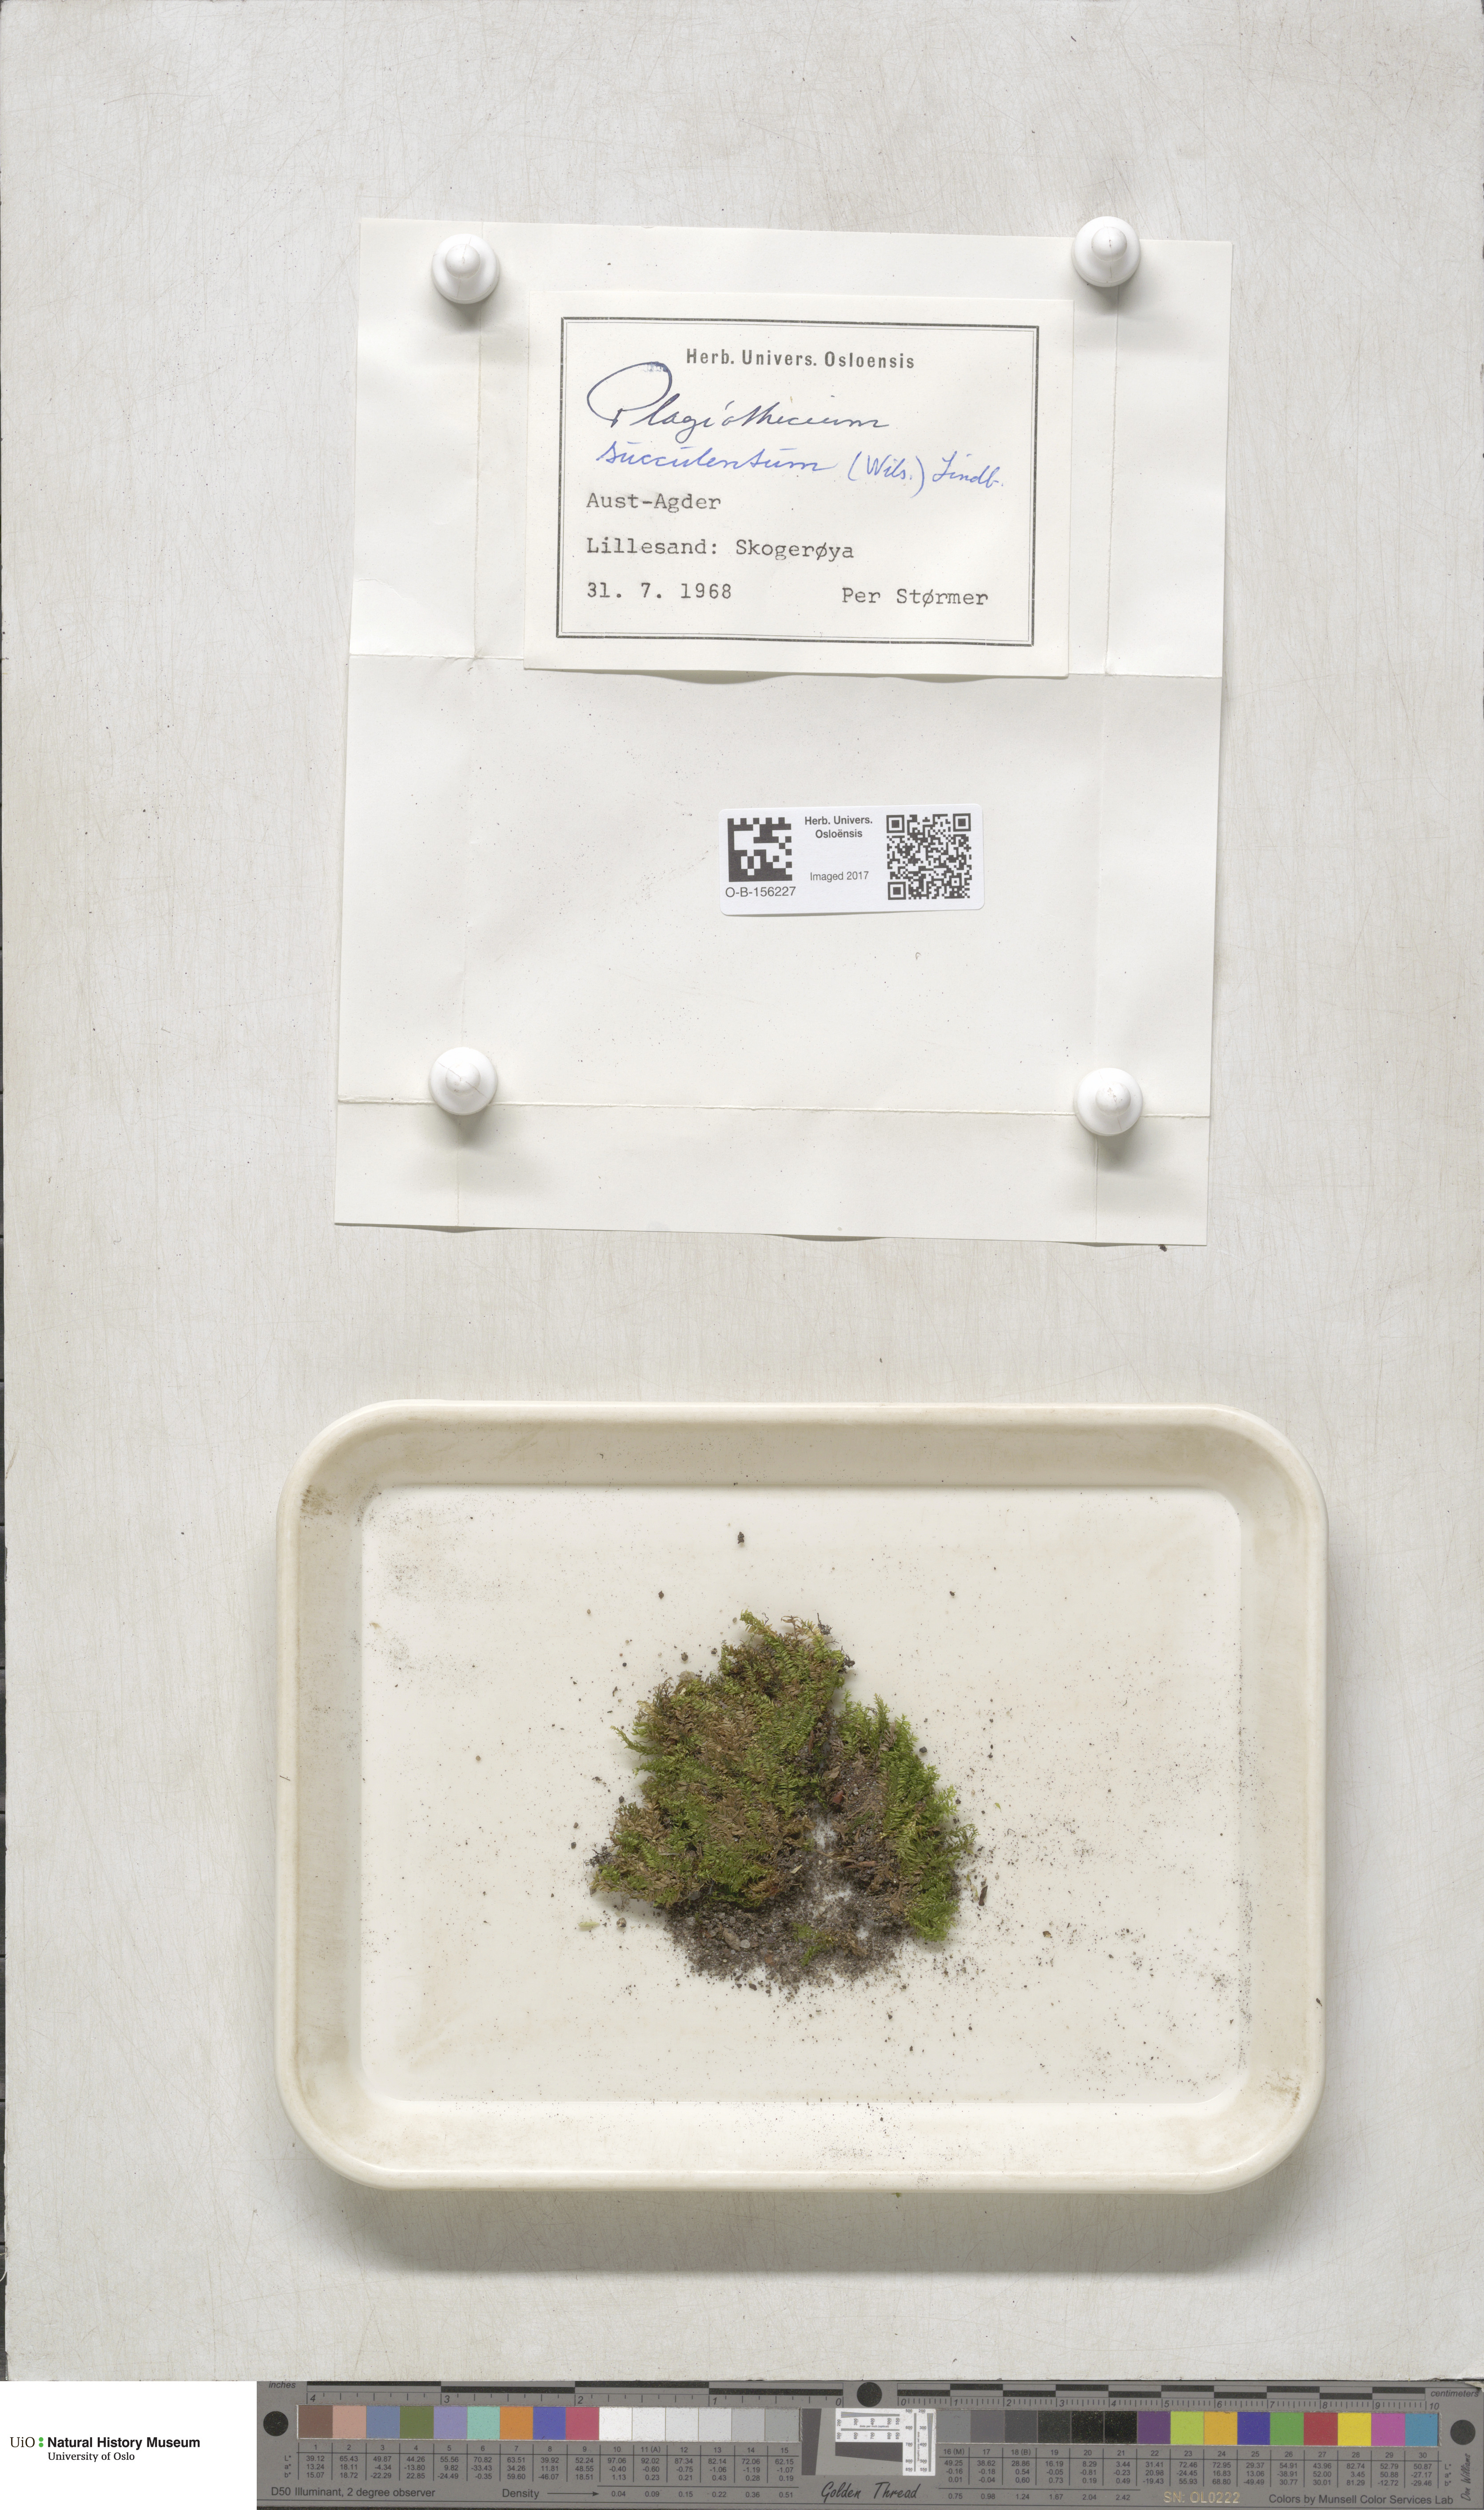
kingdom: Plantae
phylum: Bryophyta
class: Bryopsida
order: Hypnales
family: Plagiotheciaceae
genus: Plagiothecium
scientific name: Plagiothecium nemorale
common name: Woodsy silk-moss
